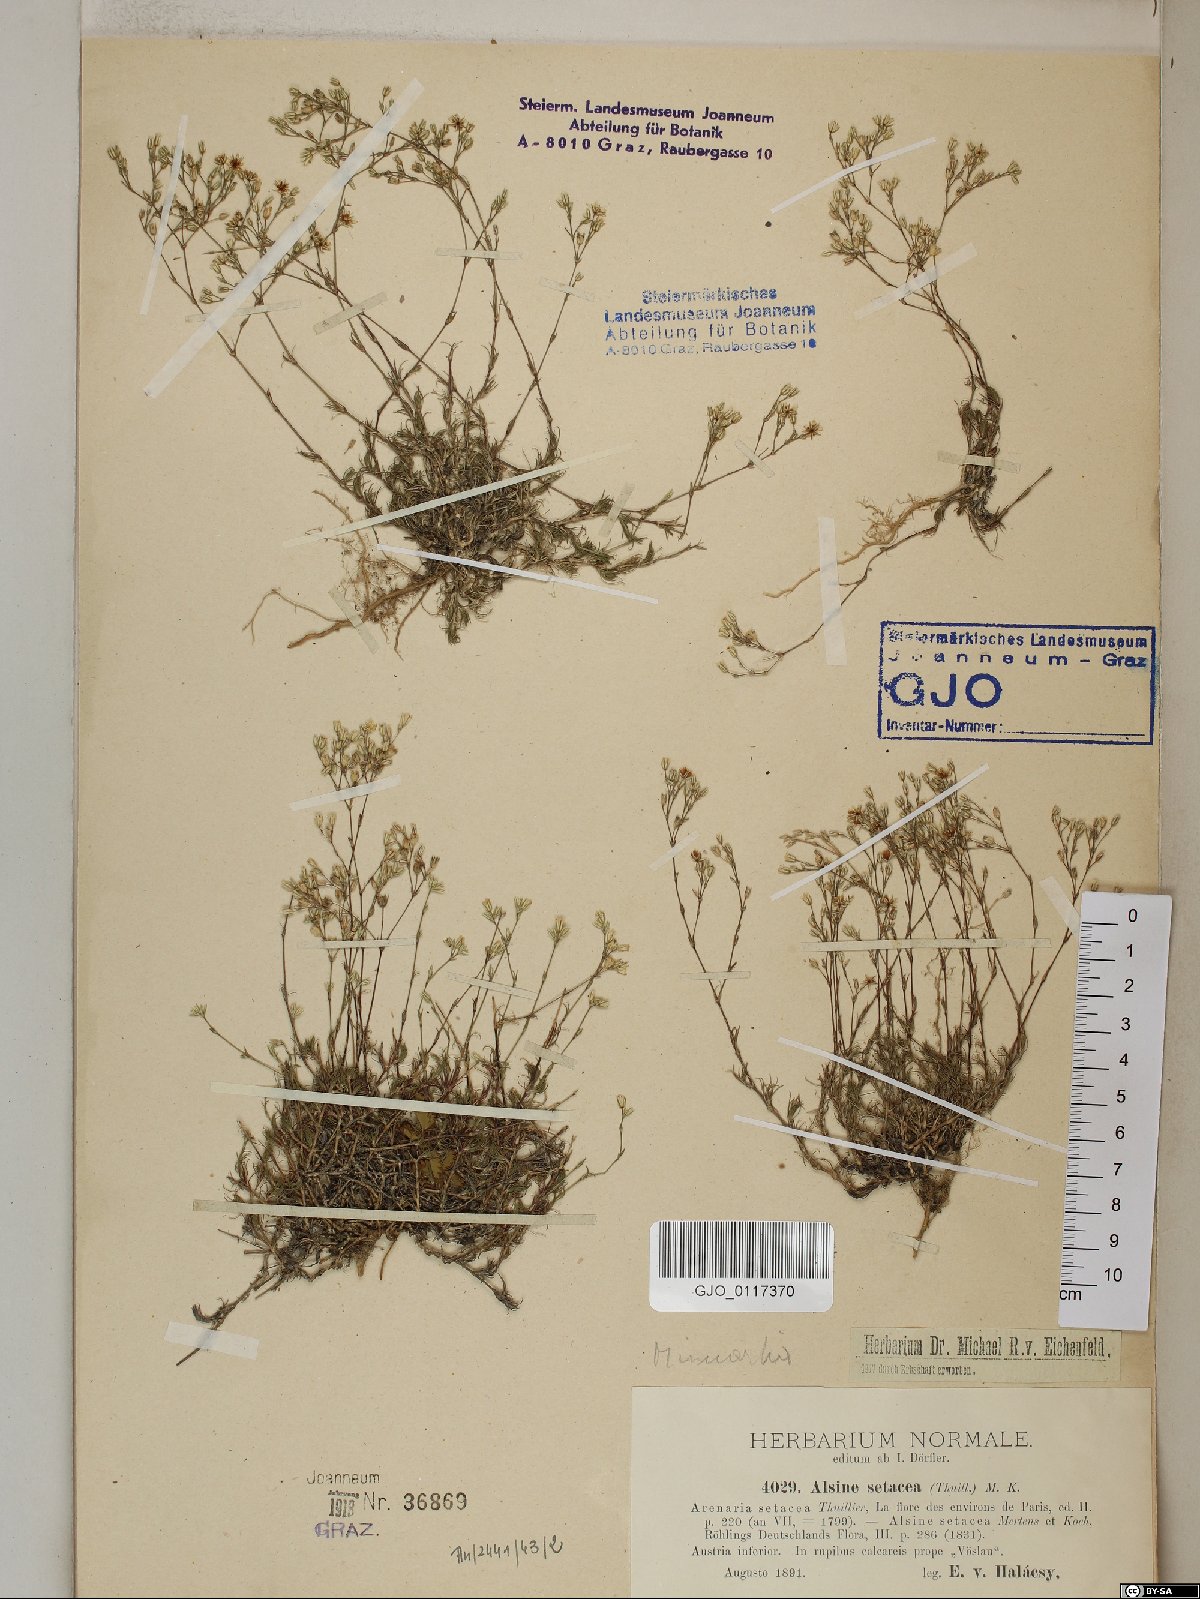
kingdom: Plantae
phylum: Tracheophyta
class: Magnoliopsida
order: Caryophyllales
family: Caryophyllaceae
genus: Minuartia
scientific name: Minuartia setacea
